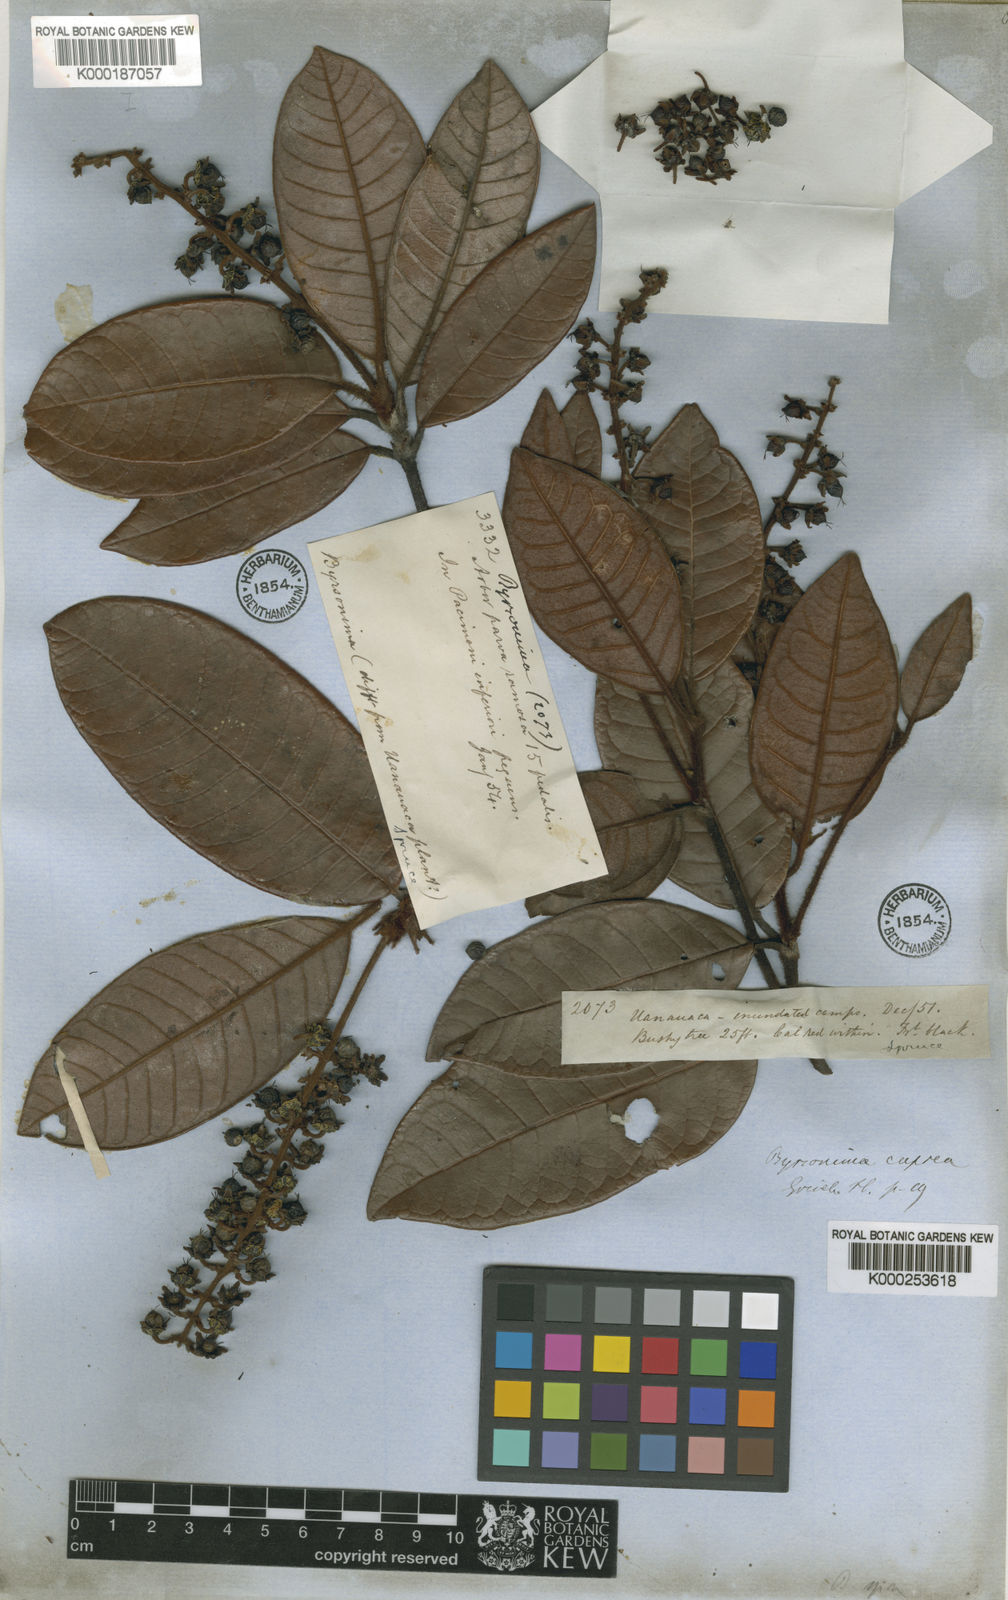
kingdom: Plantae
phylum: Tracheophyta
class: Magnoliopsida
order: Malpighiales
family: Malpighiaceae
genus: Byrsonima
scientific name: Byrsonima cuprea
